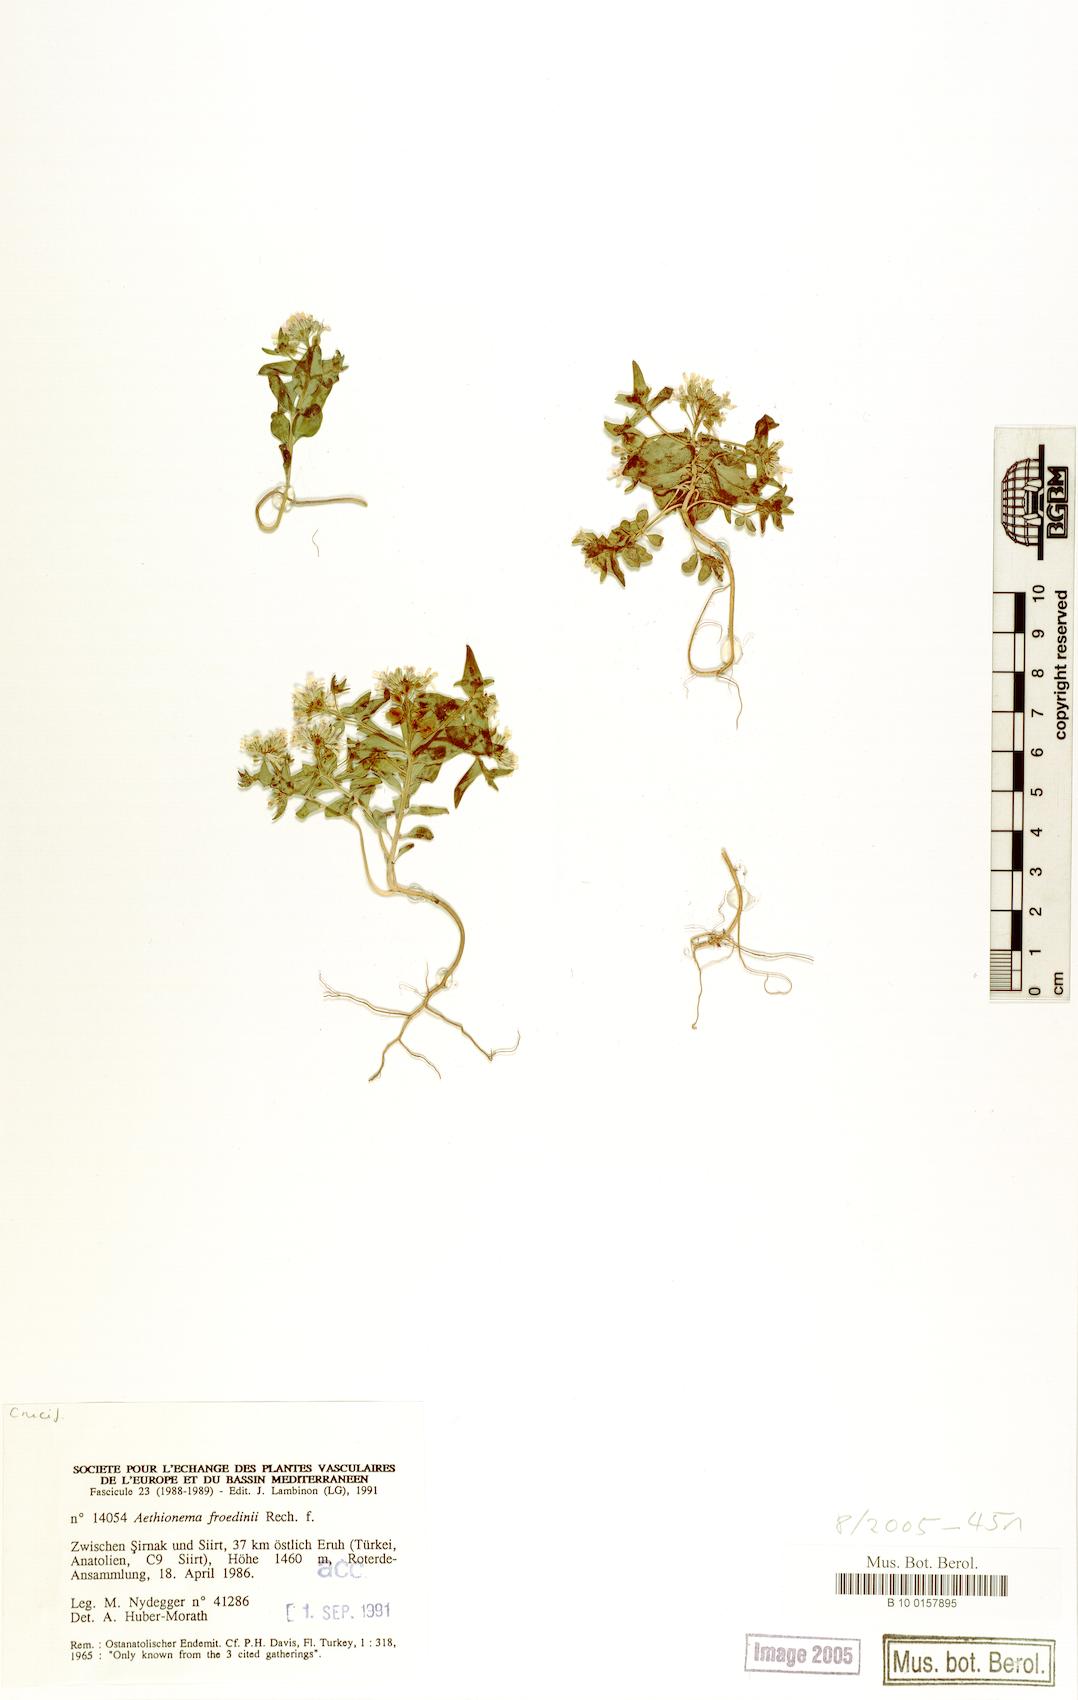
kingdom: Plantae
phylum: Tracheophyta
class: Magnoliopsida
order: Brassicales
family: Brassicaceae
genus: Aethionema
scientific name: Aethionema froedinii
